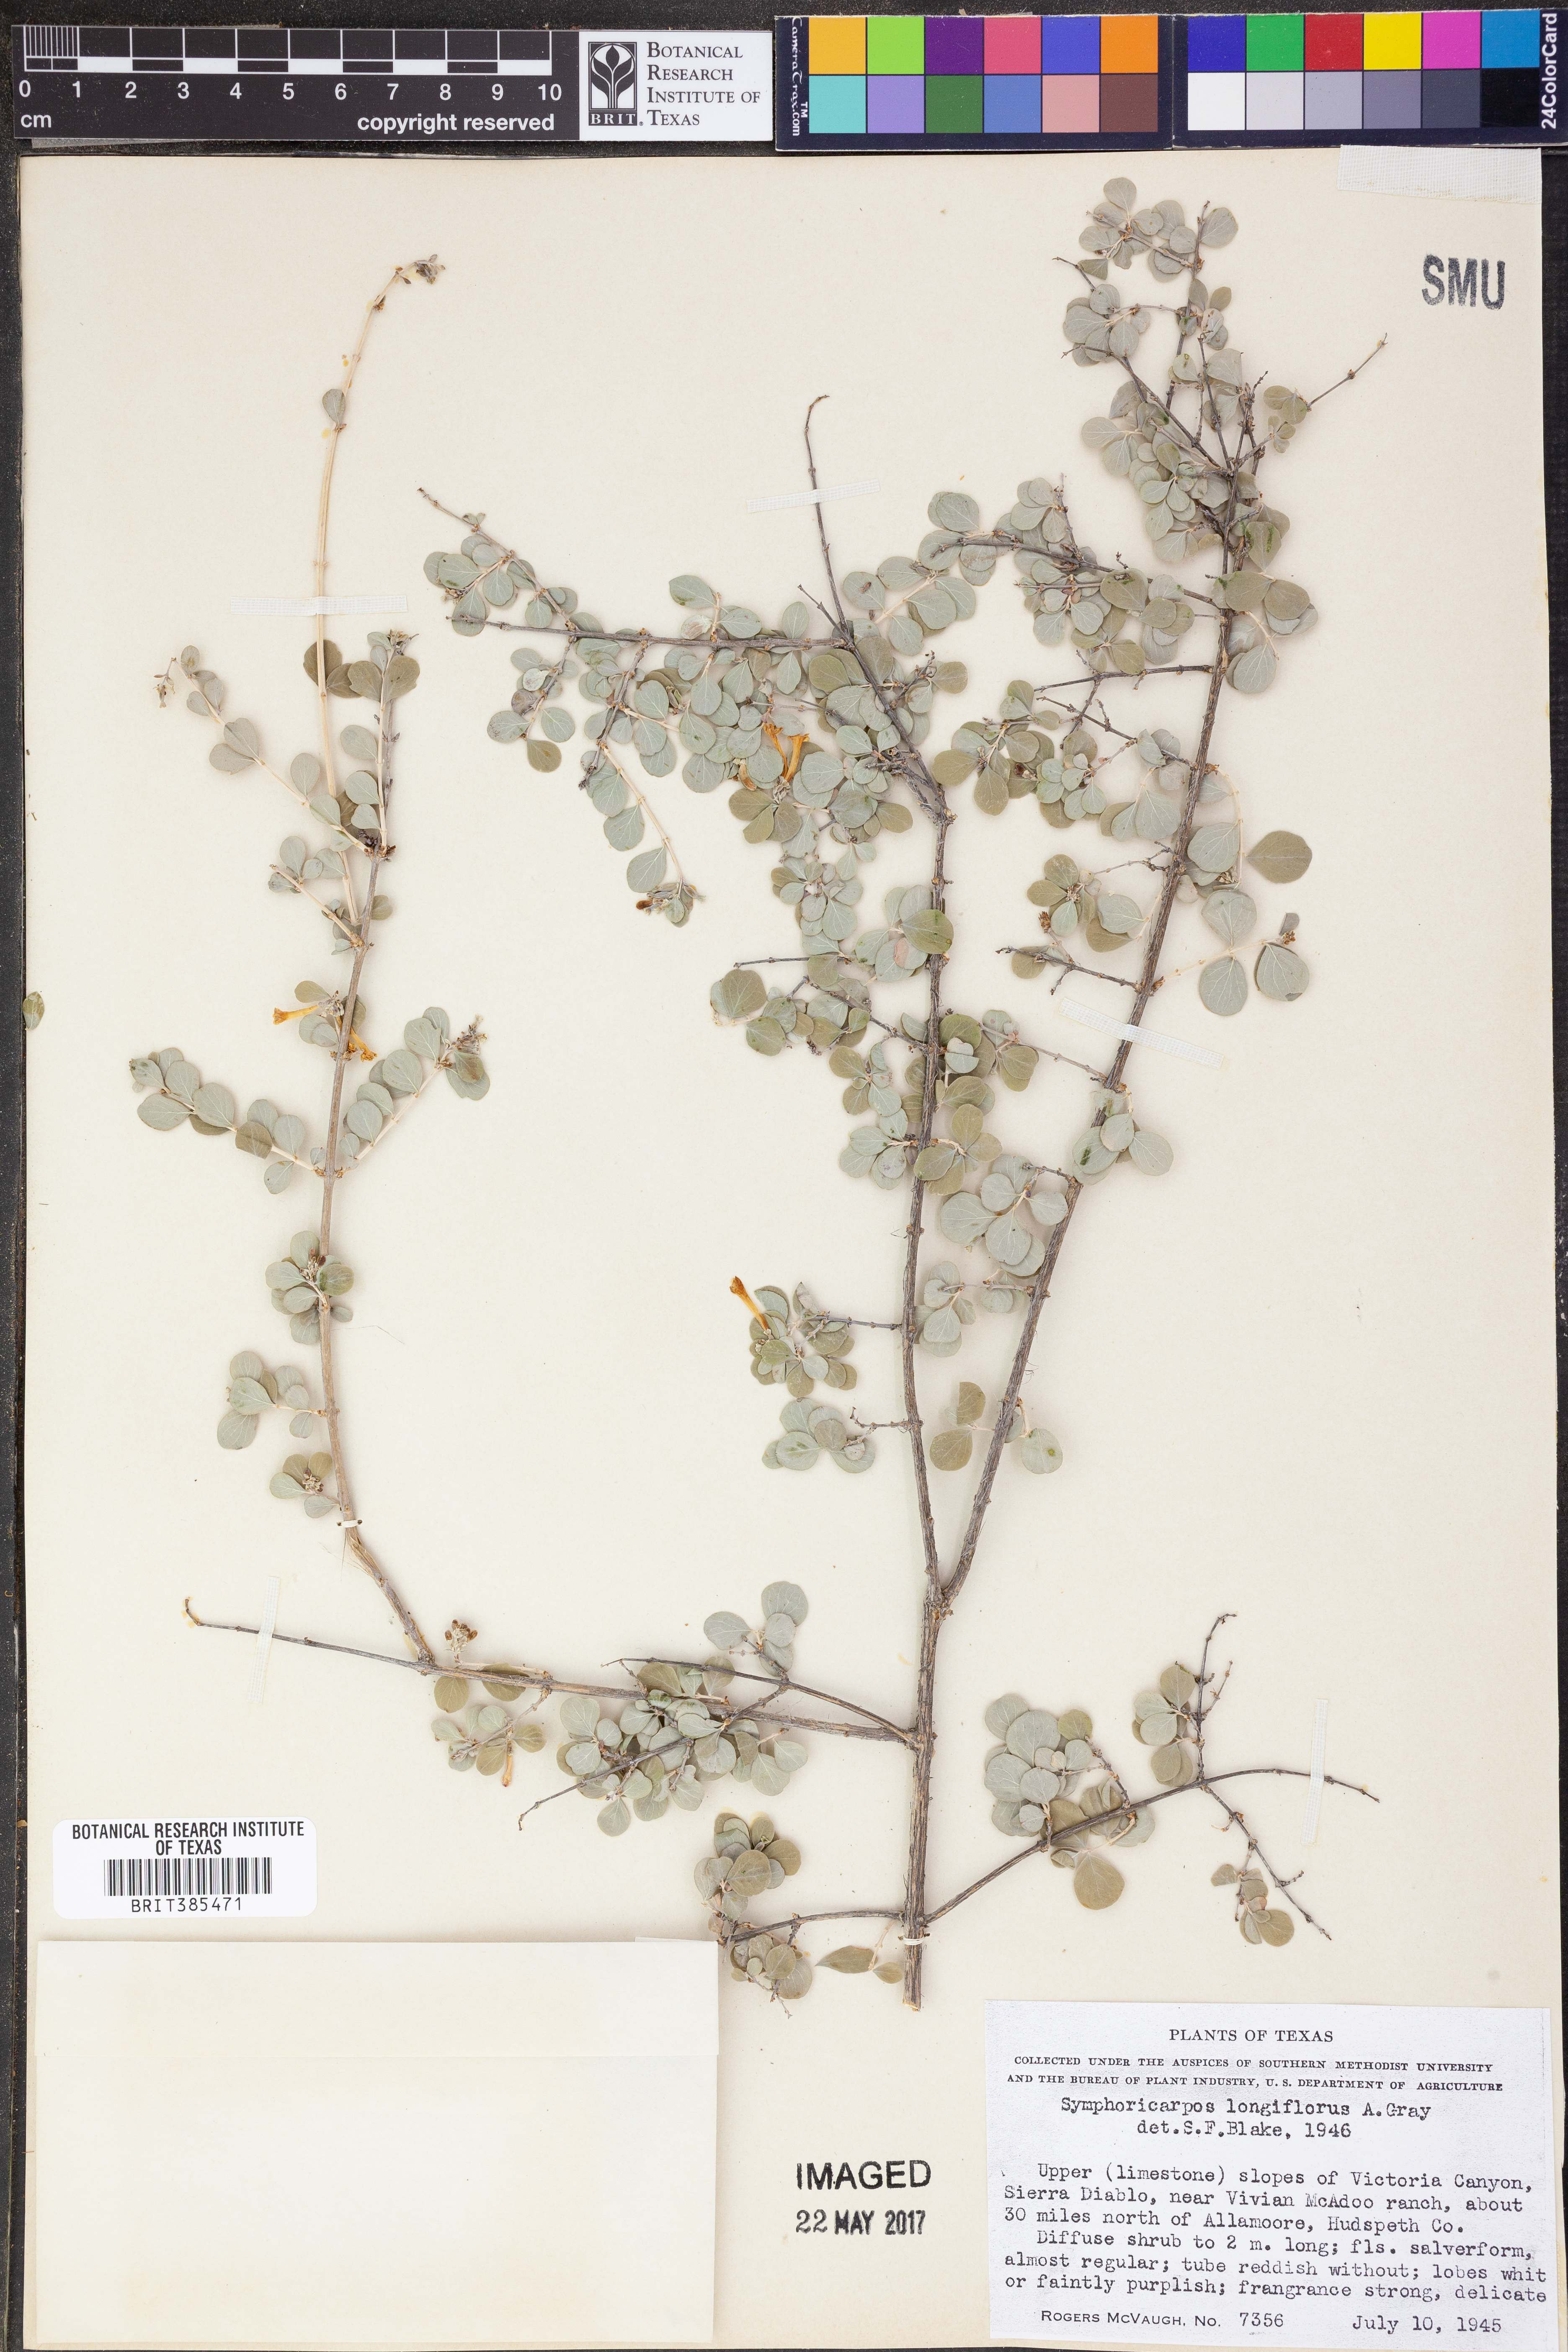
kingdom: Plantae
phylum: Tracheophyta
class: Magnoliopsida
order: Dipsacales
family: Caprifoliaceae
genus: Symphoricarpos
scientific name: Symphoricarpos longiflorus
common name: Fragrant snowberry
